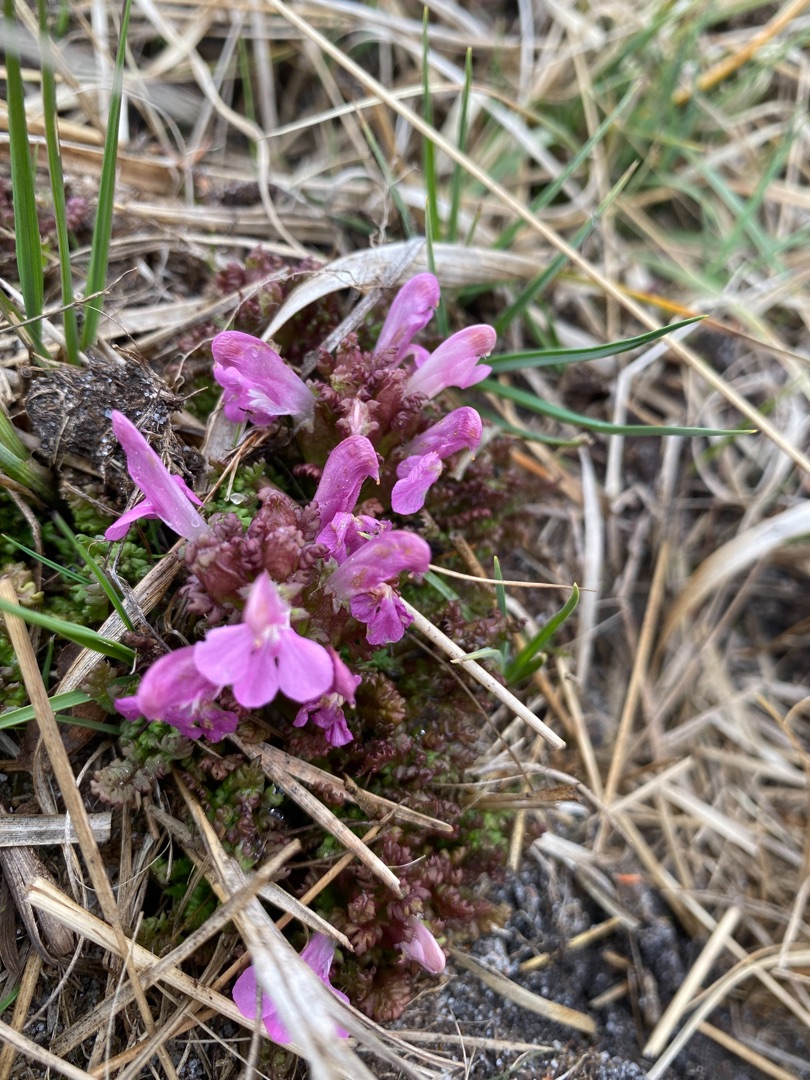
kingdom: Plantae
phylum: Tracheophyta
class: Magnoliopsida
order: Lamiales
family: Orobanchaceae
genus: Pedicularis
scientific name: Pedicularis sylvatica
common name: Mose-troldurt
